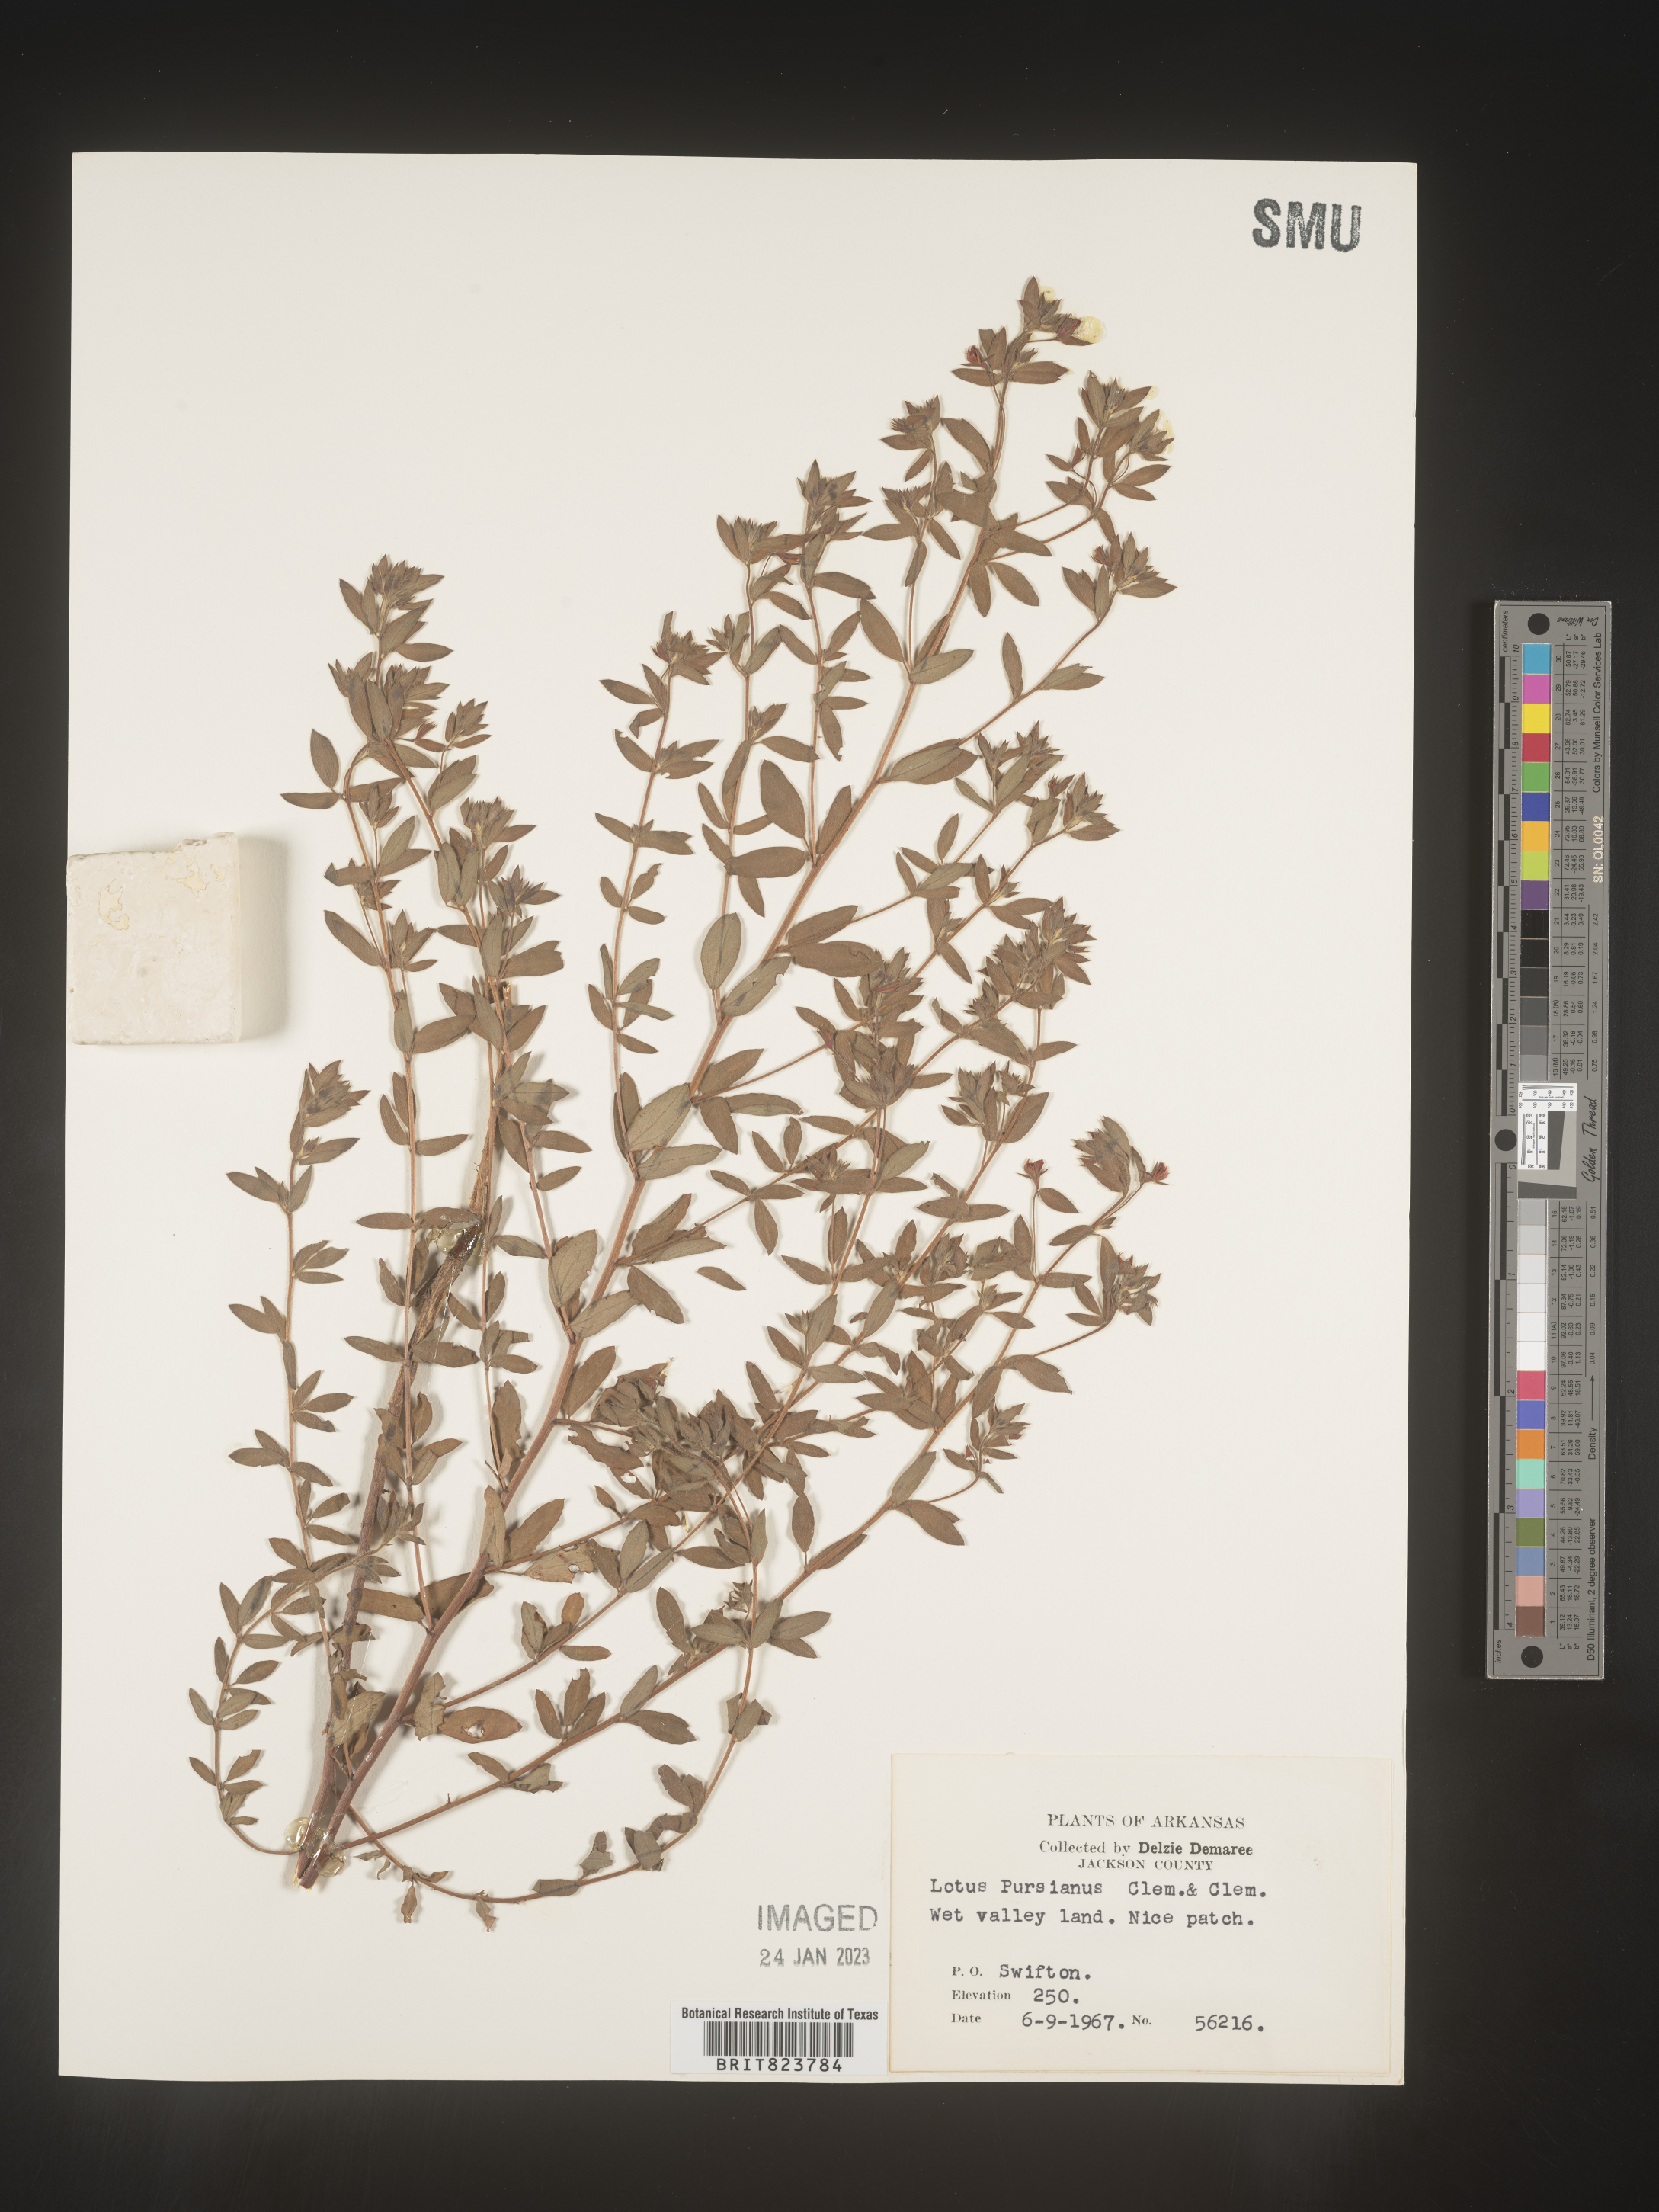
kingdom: Plantae
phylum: Tracheophyta
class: Magnoliopsida
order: Fabales
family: Fabaceae
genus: Acmispon
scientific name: Acmispon americanus
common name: American bird's-foot trefoil
